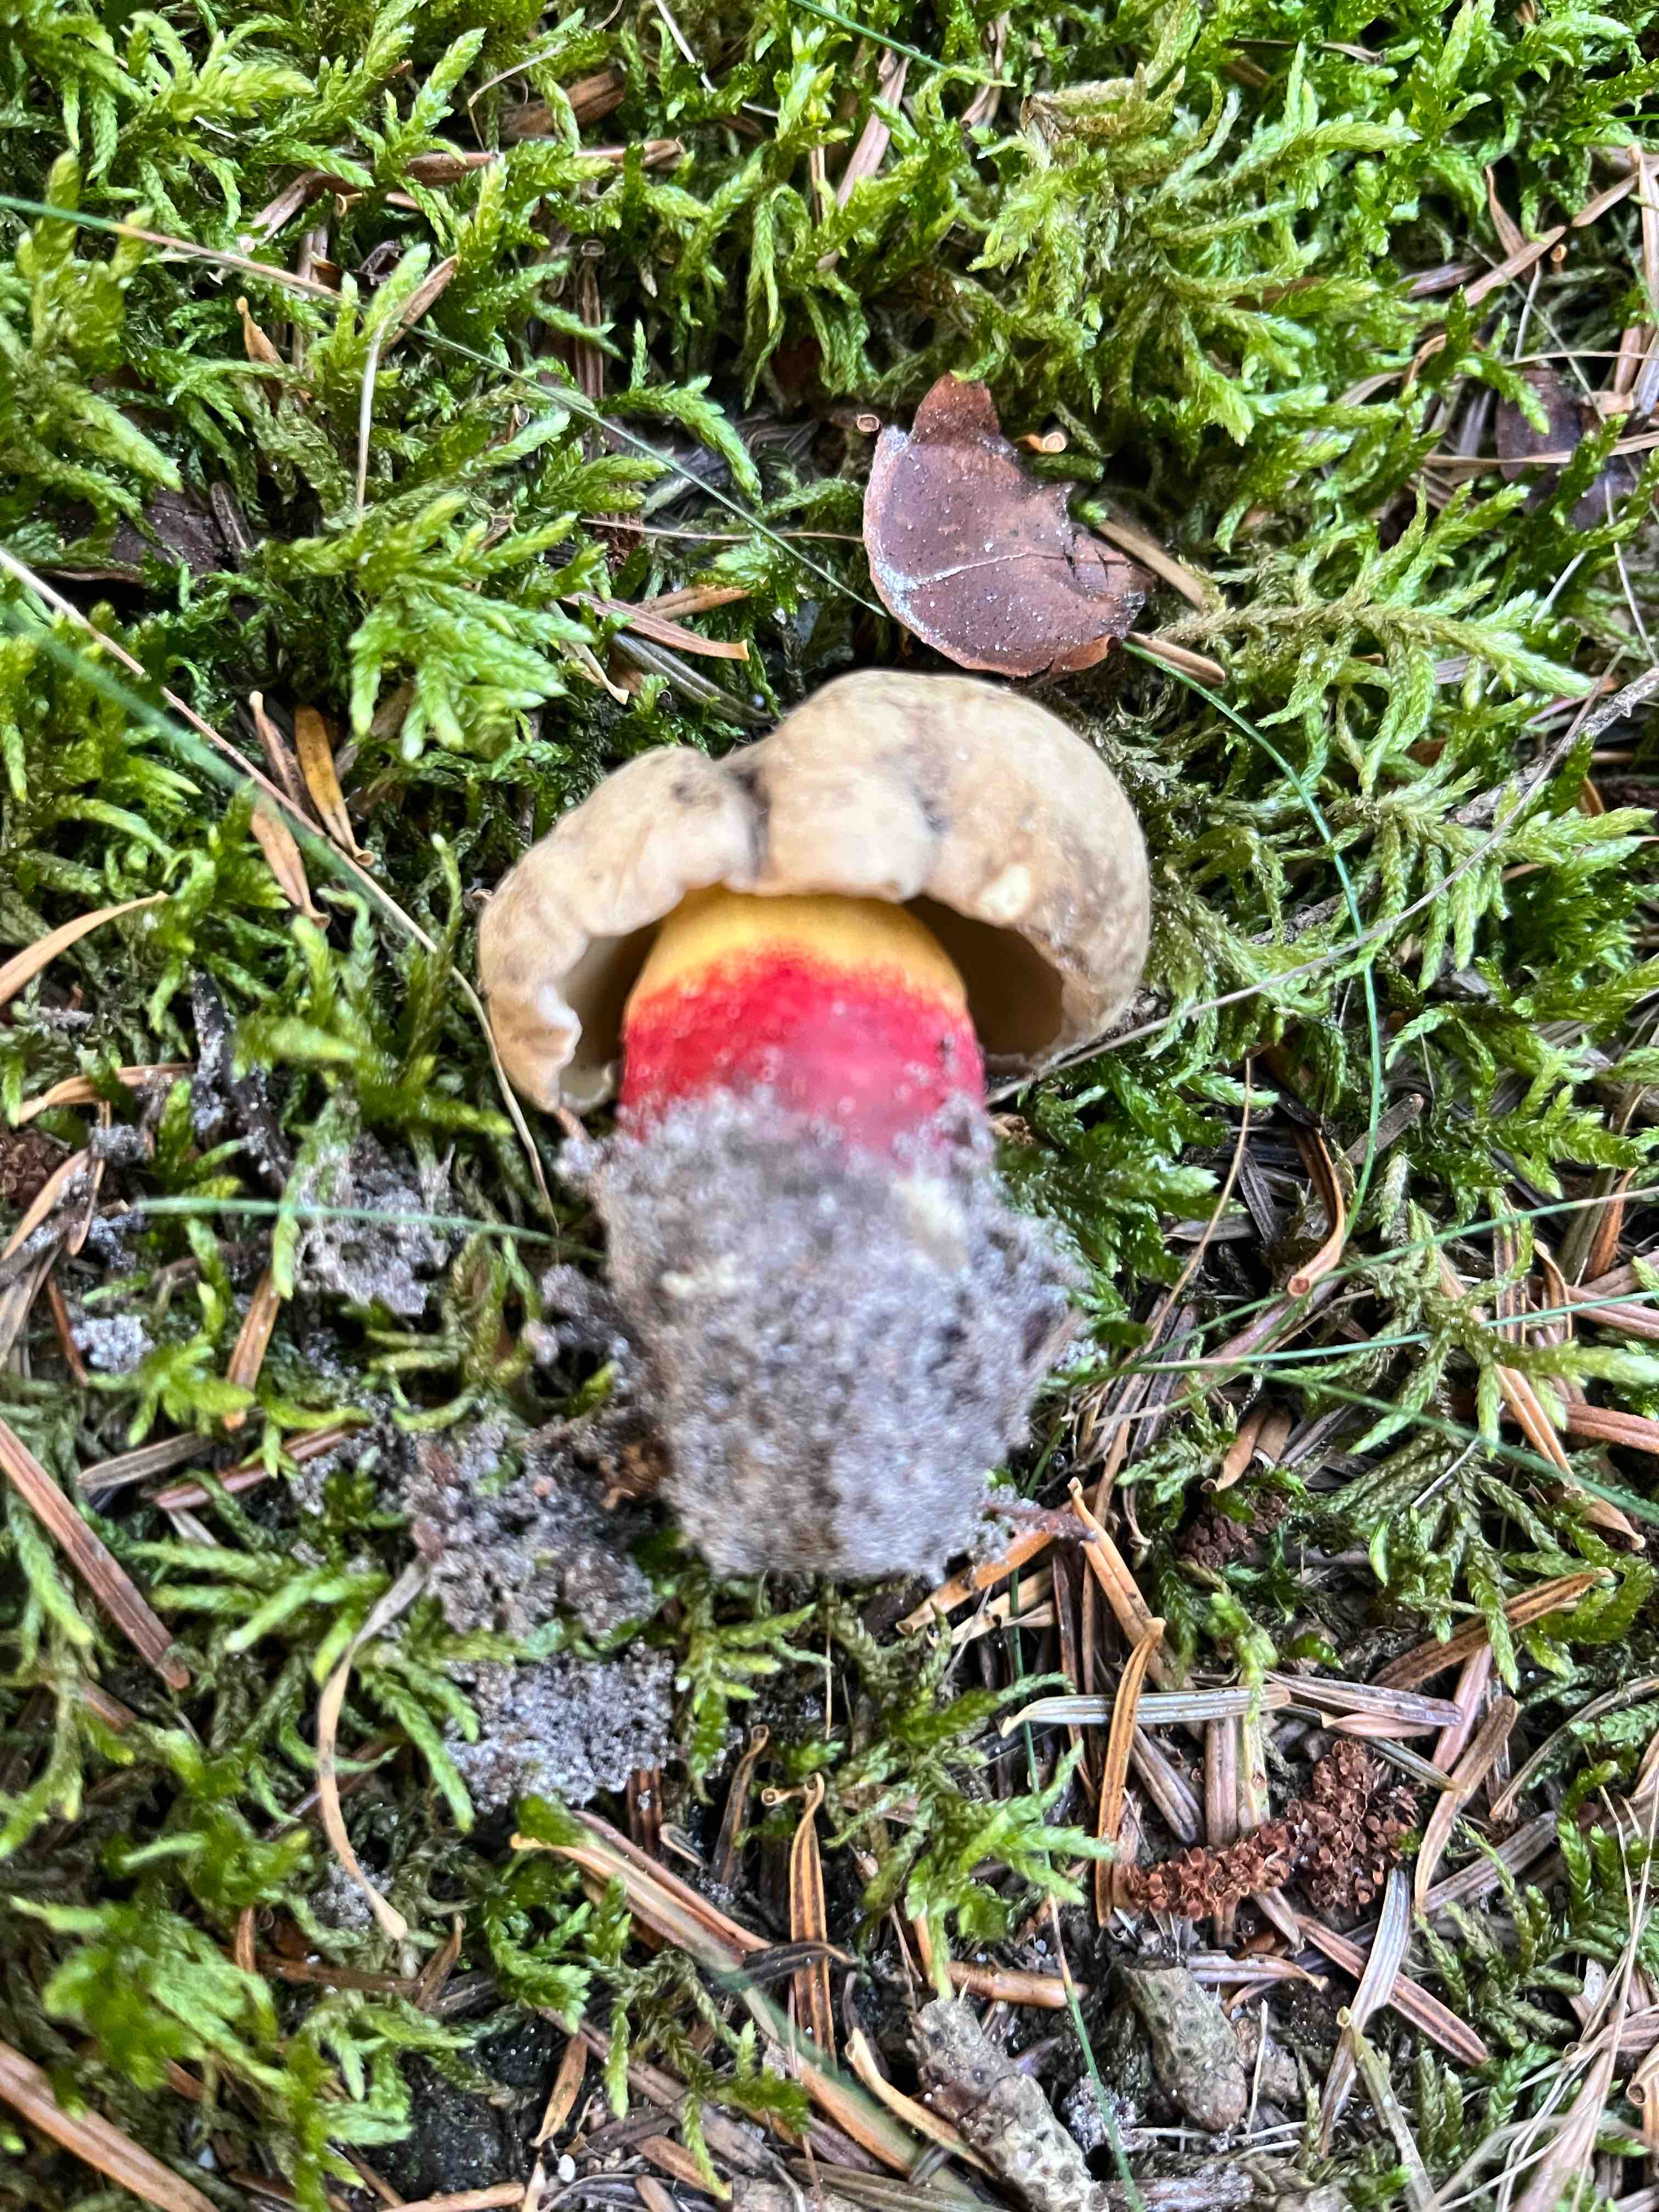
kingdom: Fungi
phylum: Basidiomycota
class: Agaricomycetes
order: Boletales
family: Boletaceae
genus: Caloboletus
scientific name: Caloboletus calopus
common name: skønfodet rørhat
